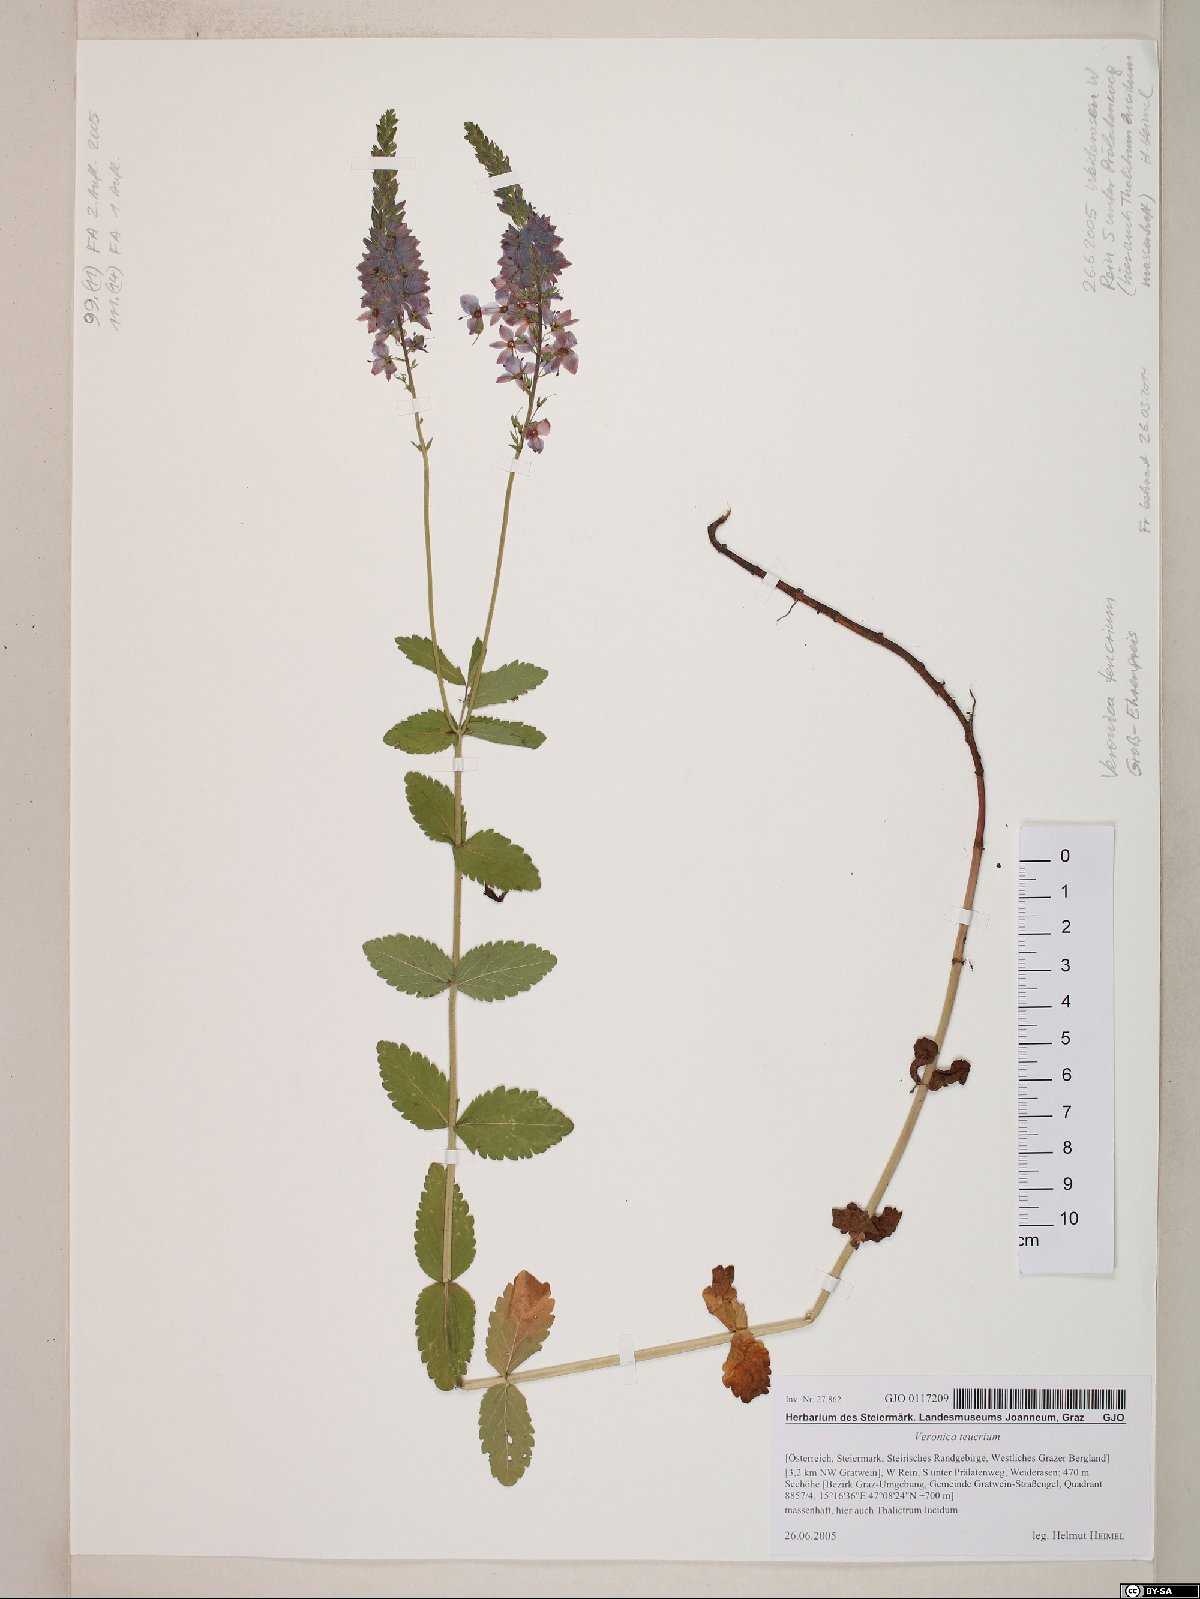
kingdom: Plantae
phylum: Tracheophyta
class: Magnoliopsida
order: Lamiales
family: Plantaginaceae
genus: Veronica
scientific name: Veronica teucrium
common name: Large speedwell
